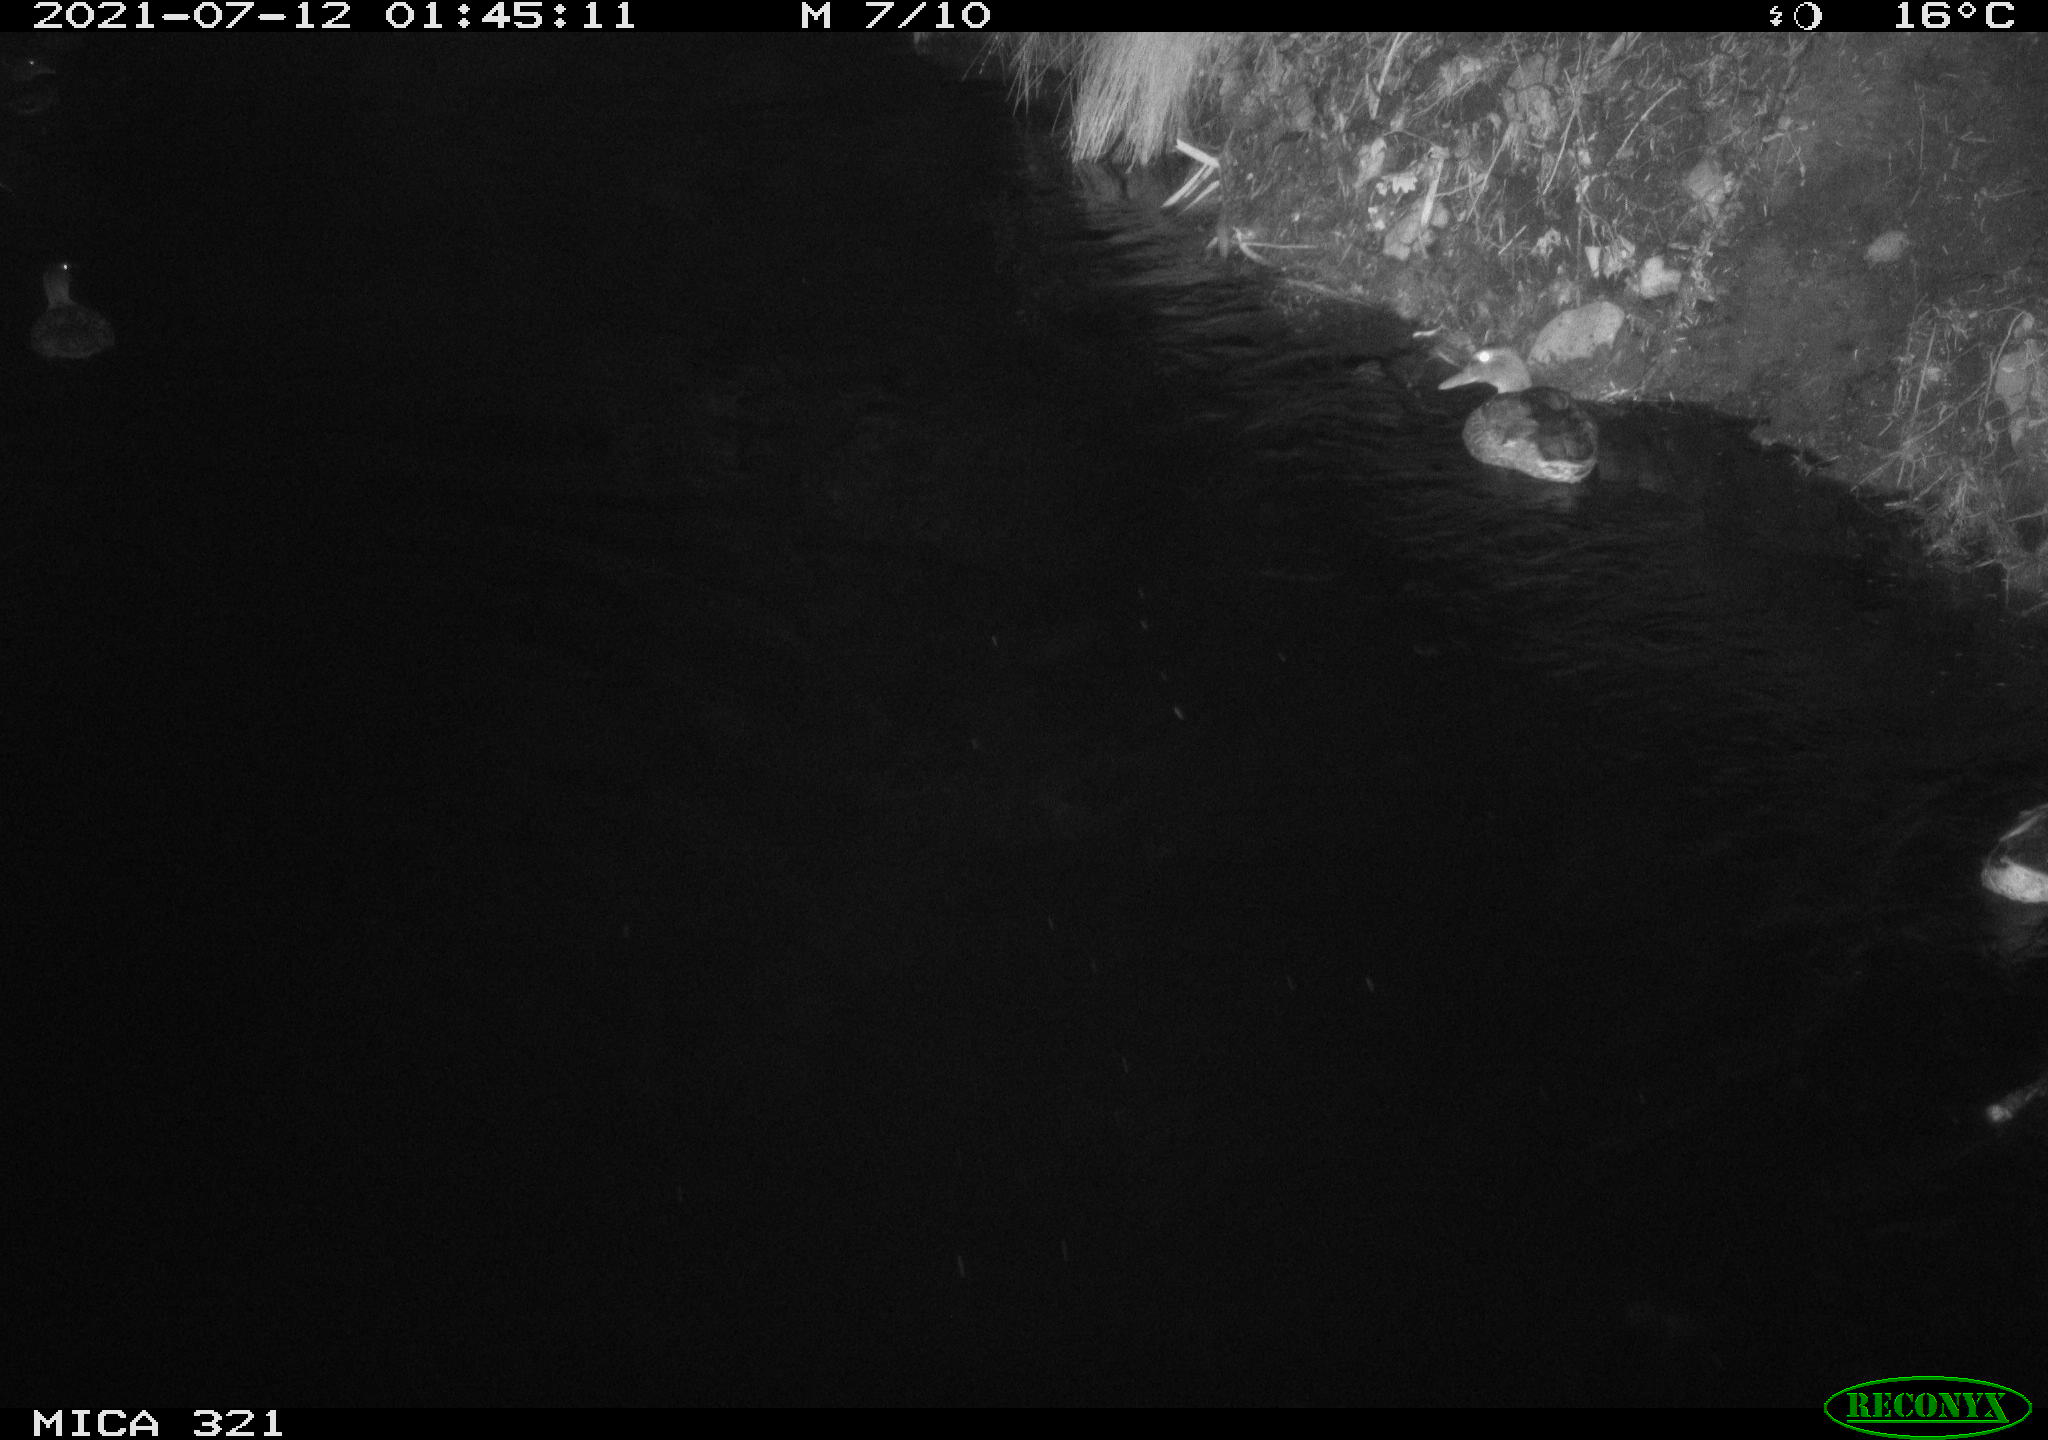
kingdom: Animalia
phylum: Chordata
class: Aves
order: Anseriformes
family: Anatidae
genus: Anas
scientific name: Anas platyrhynchos
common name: Mallard
